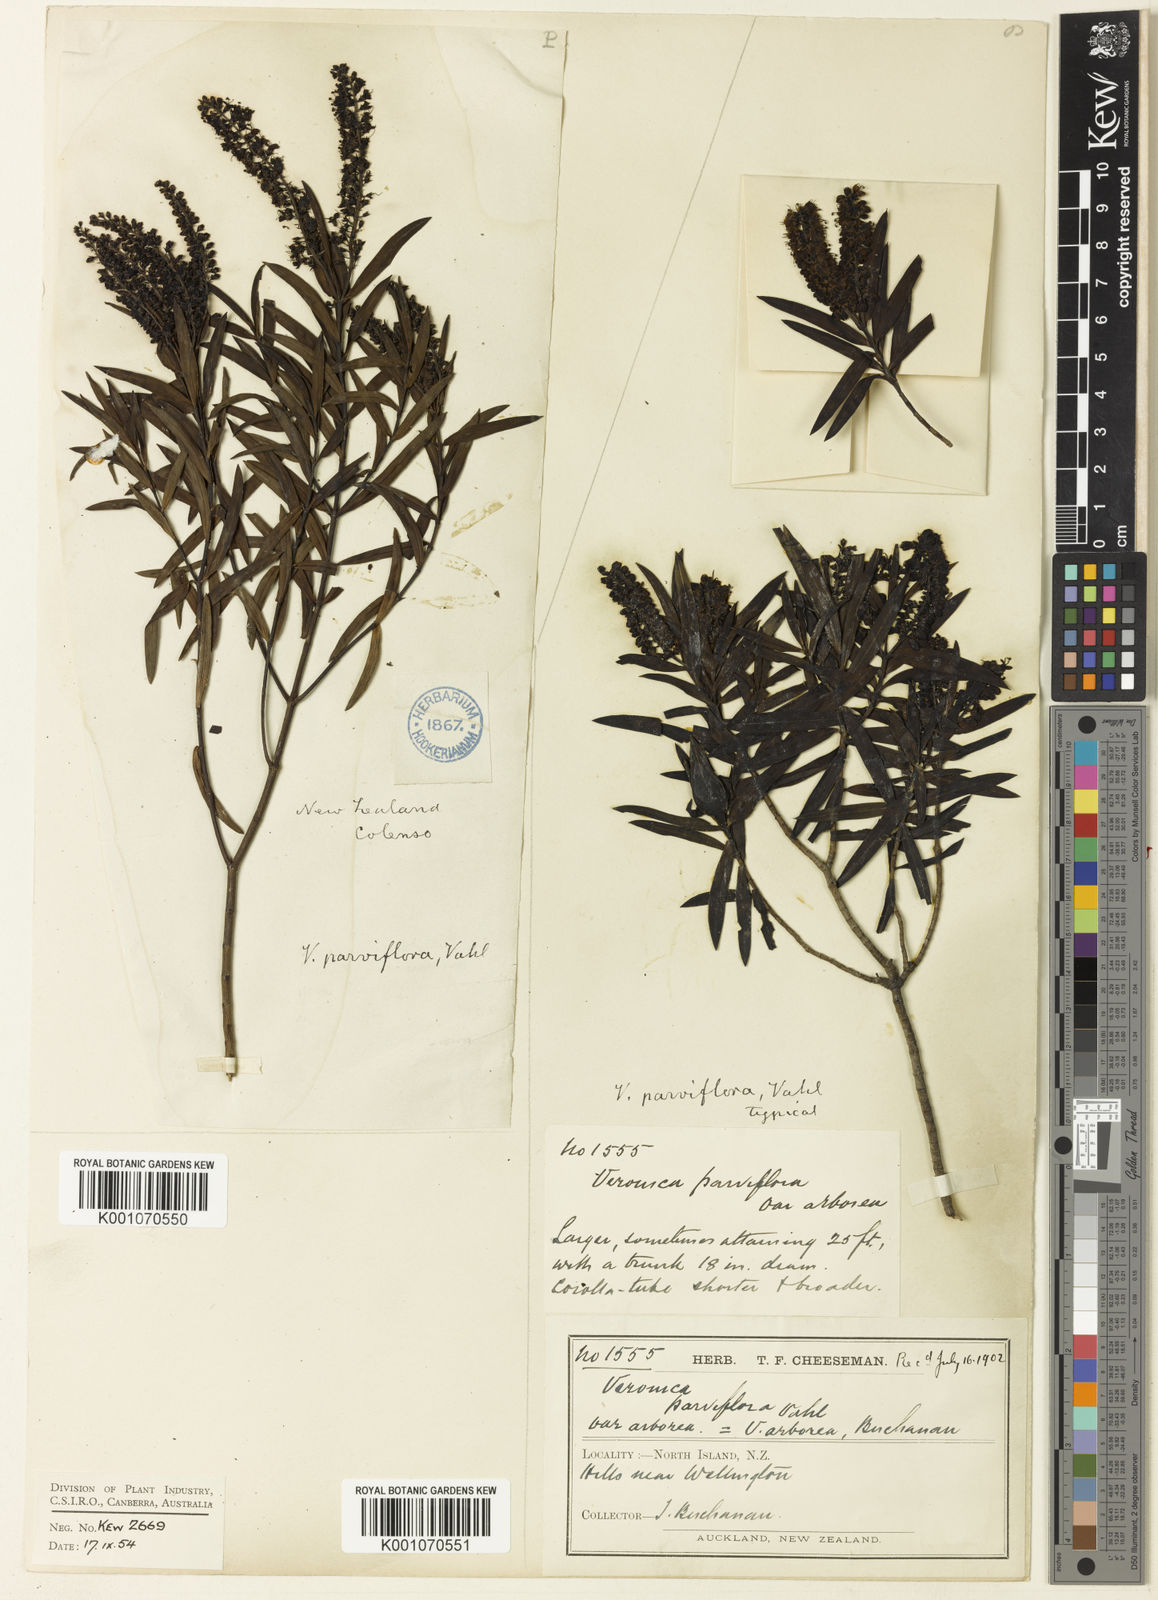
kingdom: Plantae
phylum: Tracheophyta
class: Magnoliopsida
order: Lamiales
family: Plantaginaceae
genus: Veronica
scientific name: Veronica
